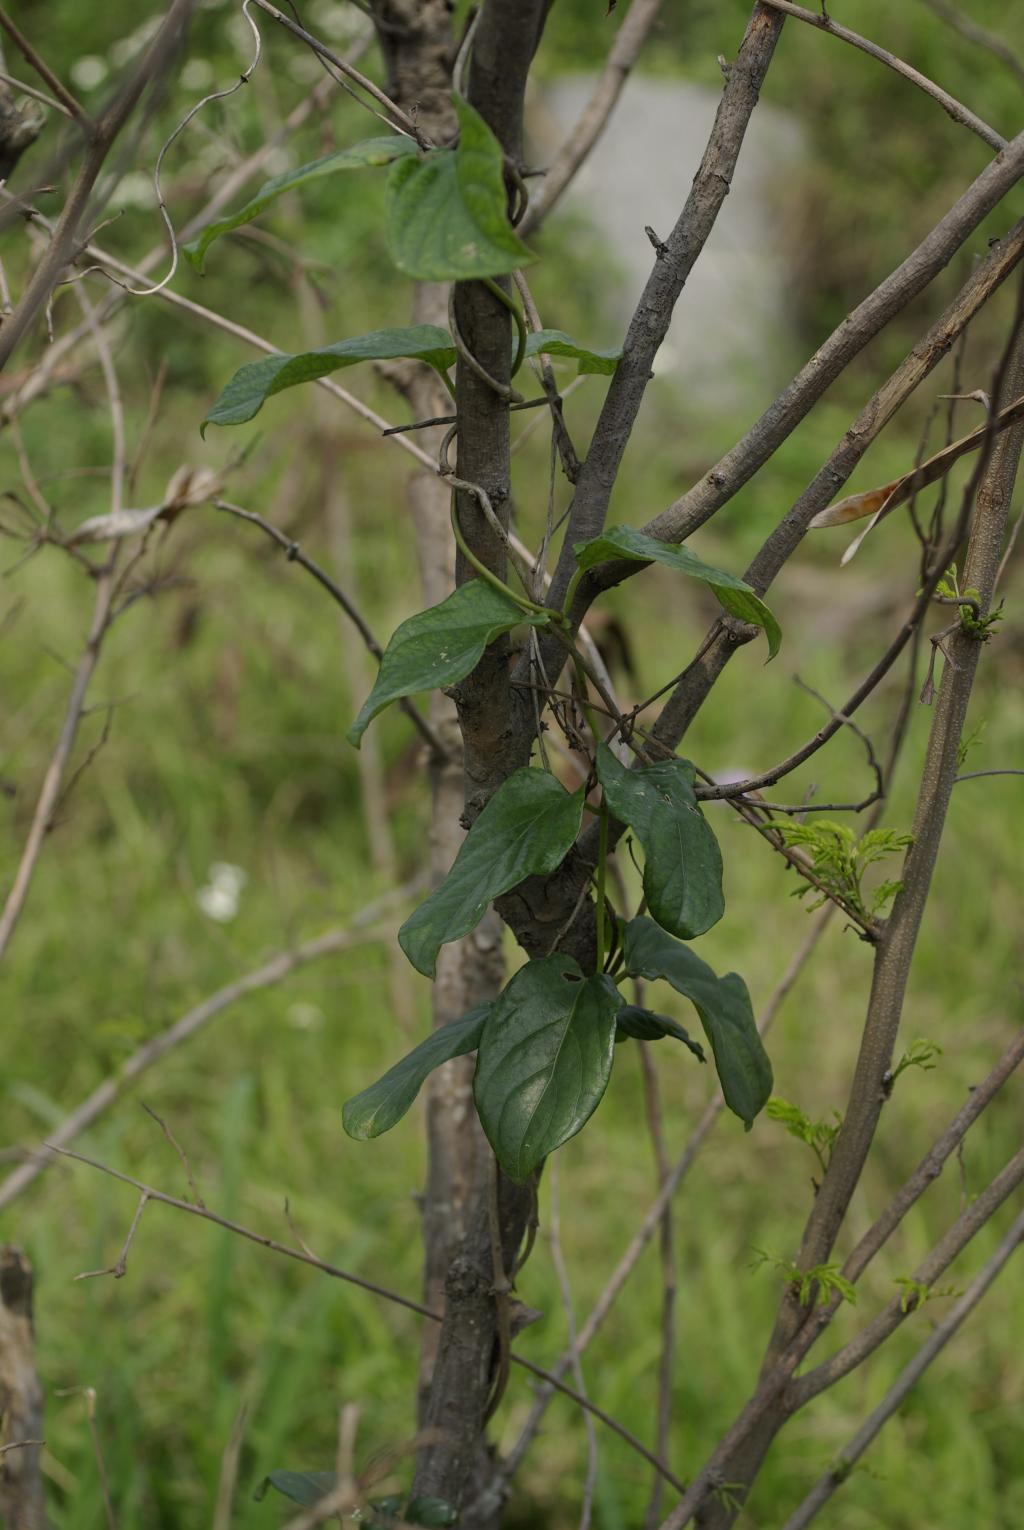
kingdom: Plantae
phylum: Tracheophyta
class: Magnoliopsida
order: Gentianales
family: Rubiaceae
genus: Paederia
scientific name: Paederia foetida
